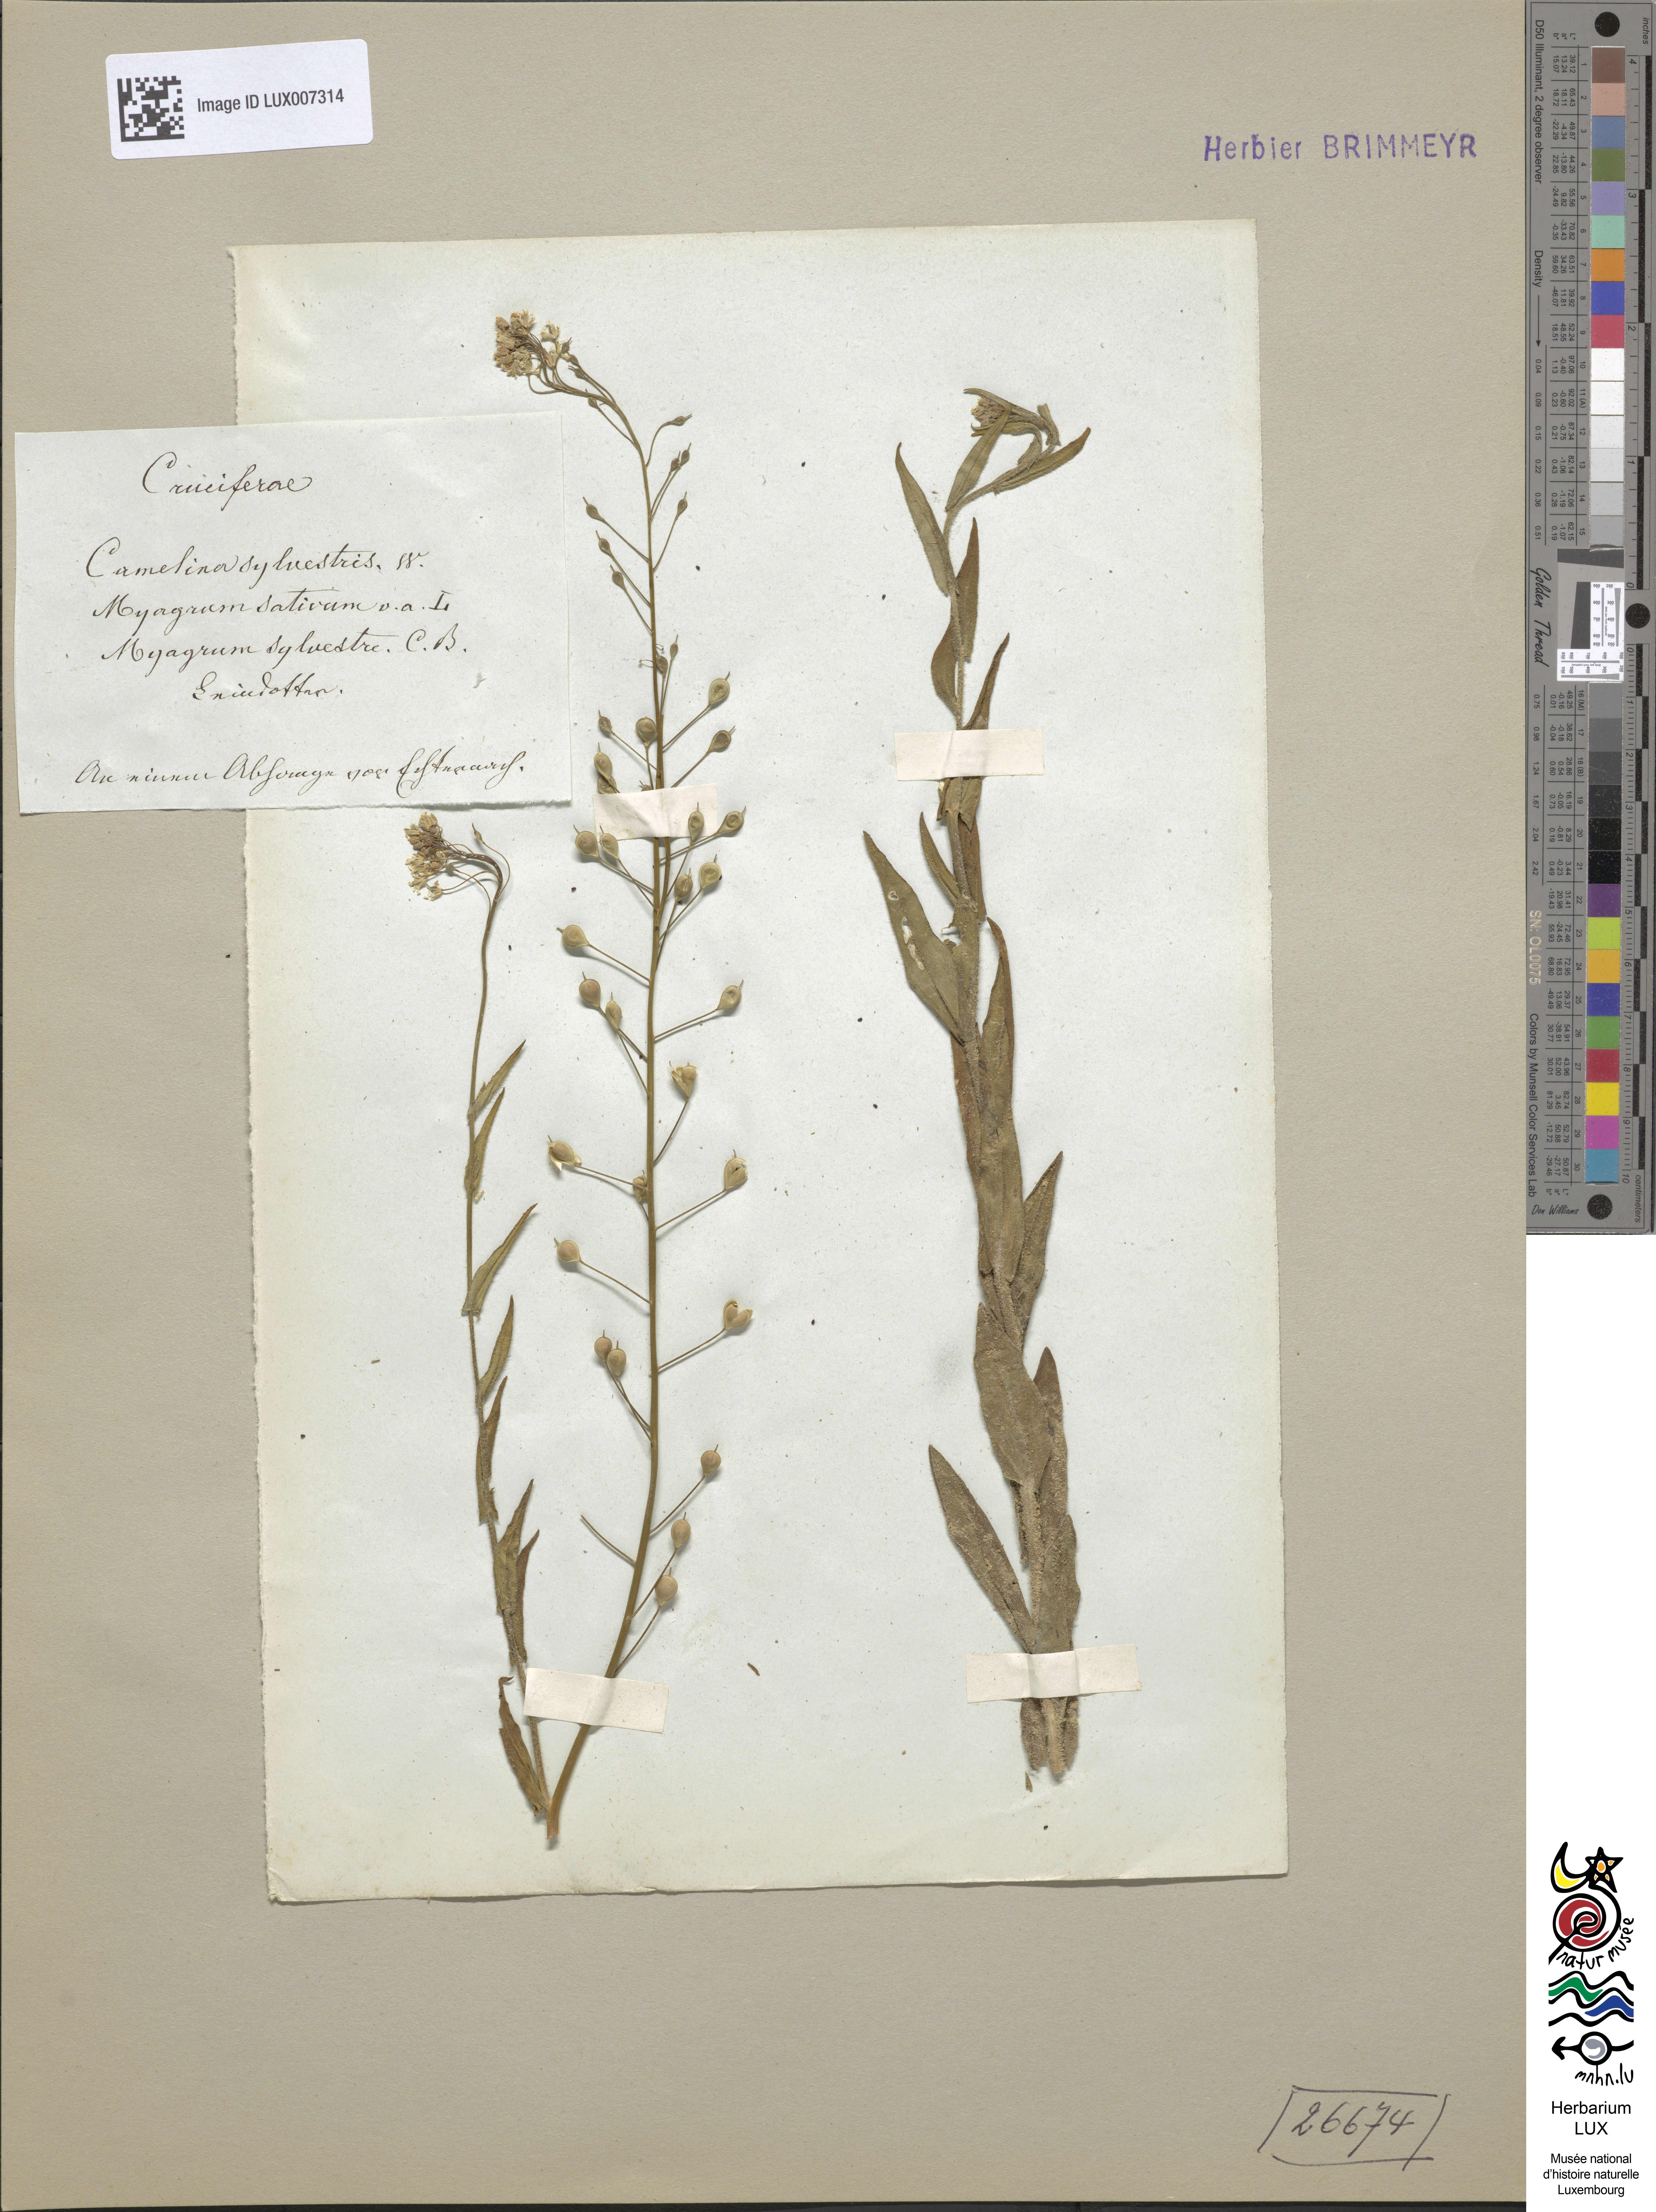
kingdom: Plantae
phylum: Tracheophyta
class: Magnoliopsida
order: Brassicales
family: Brassicaceae
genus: Camelina
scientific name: Camelina microcarpa
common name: Lesser gold-of-pleasure
